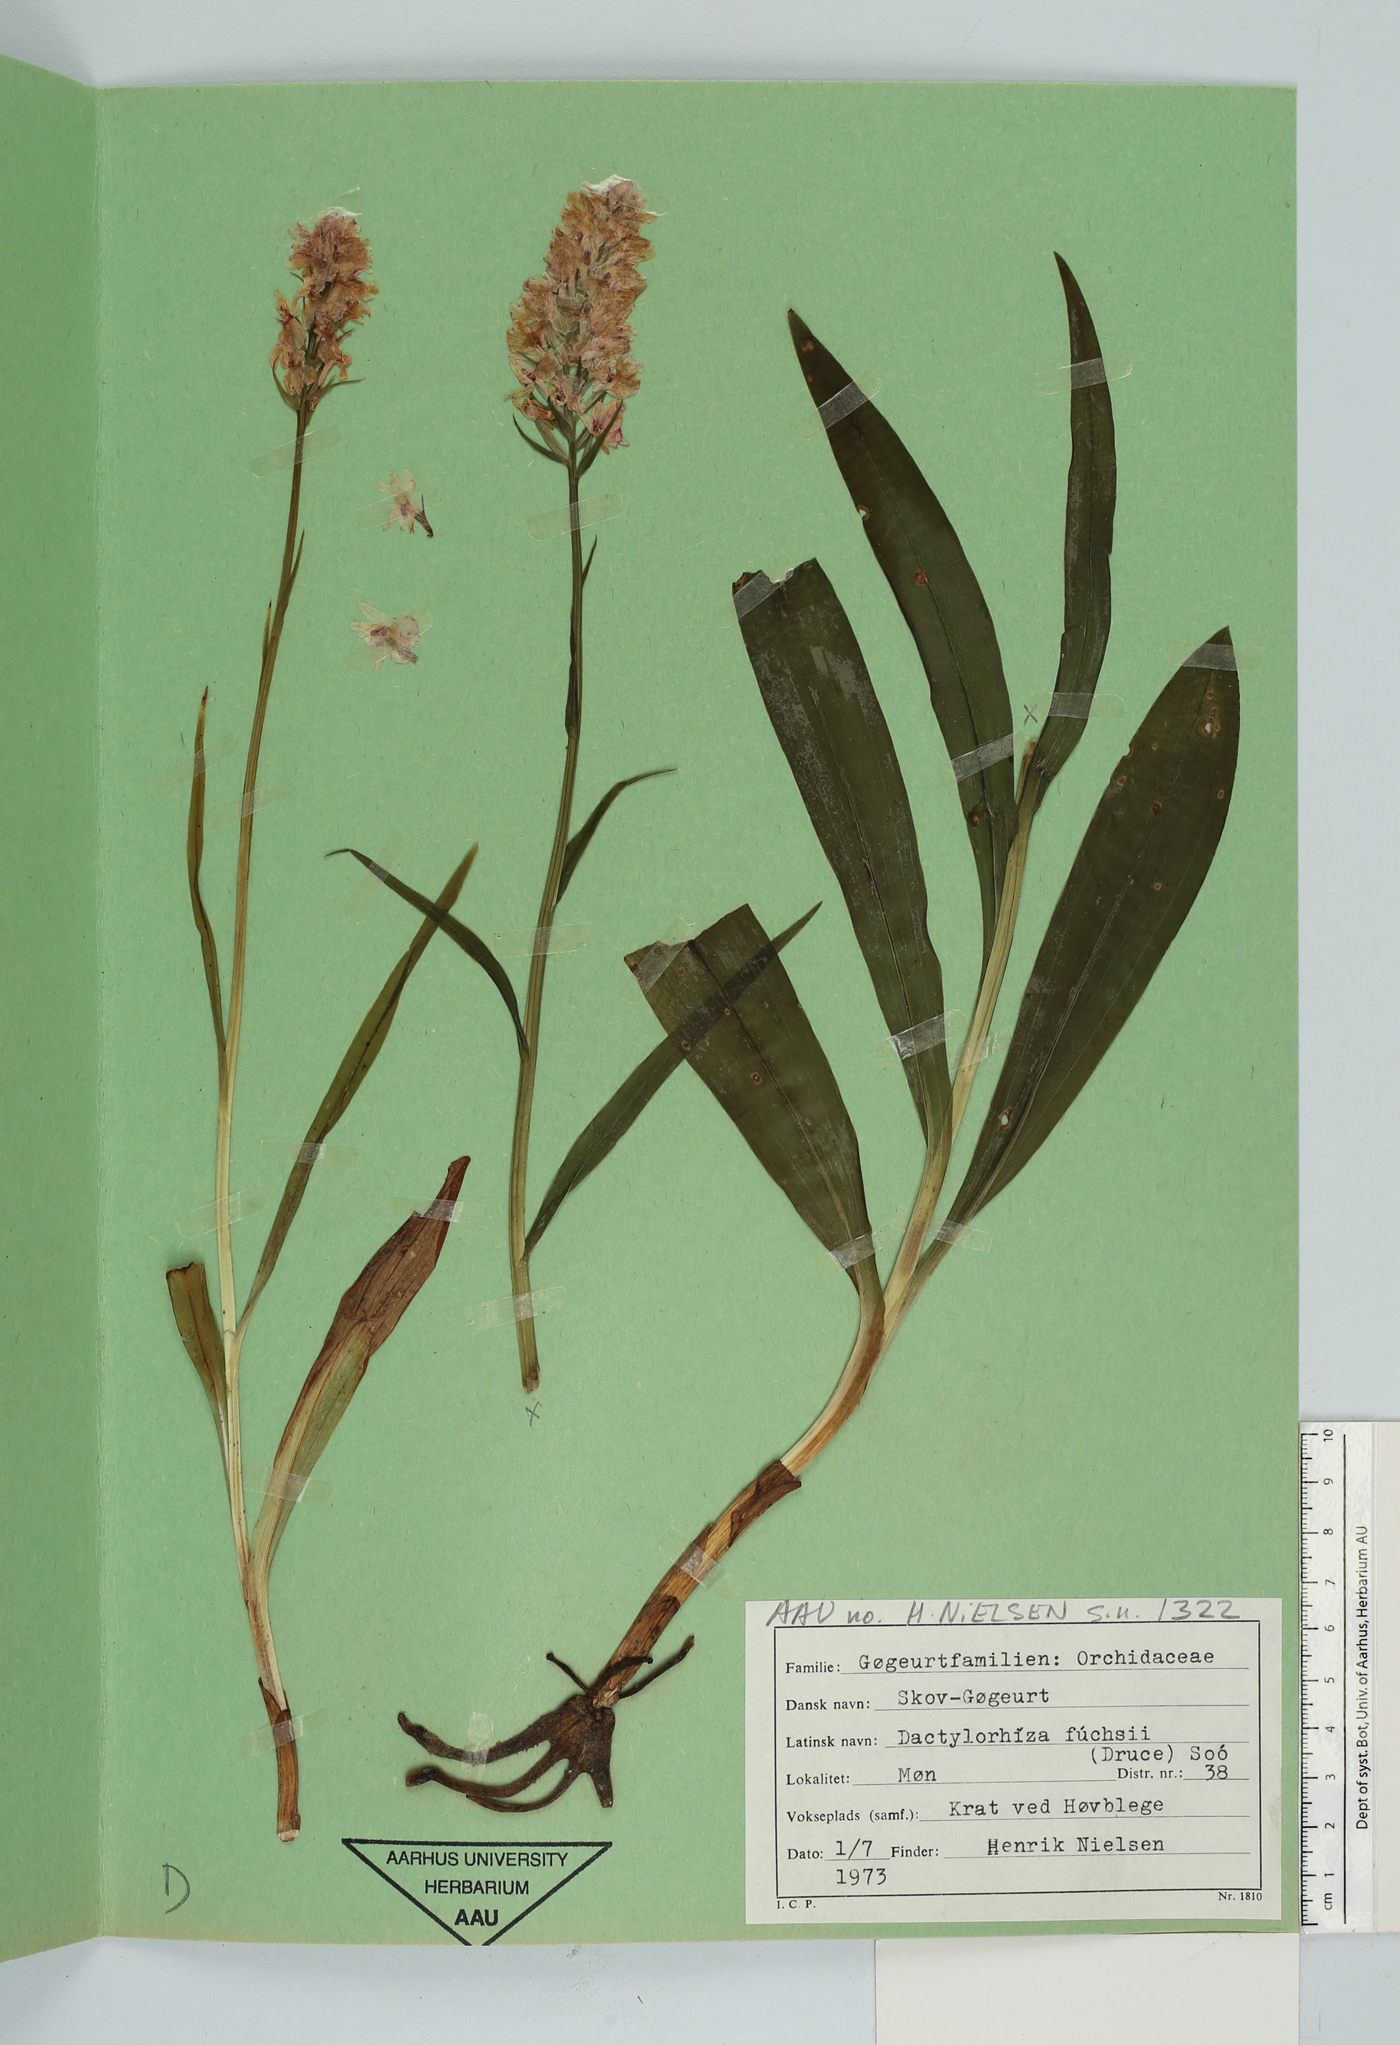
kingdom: Plantae
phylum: Tracheophyta
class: Liliopsida
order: Asparagales
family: Orchidaceae
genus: Dactylorhiza
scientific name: Dactylorhiza maculata
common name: Heath spotted-orchid
